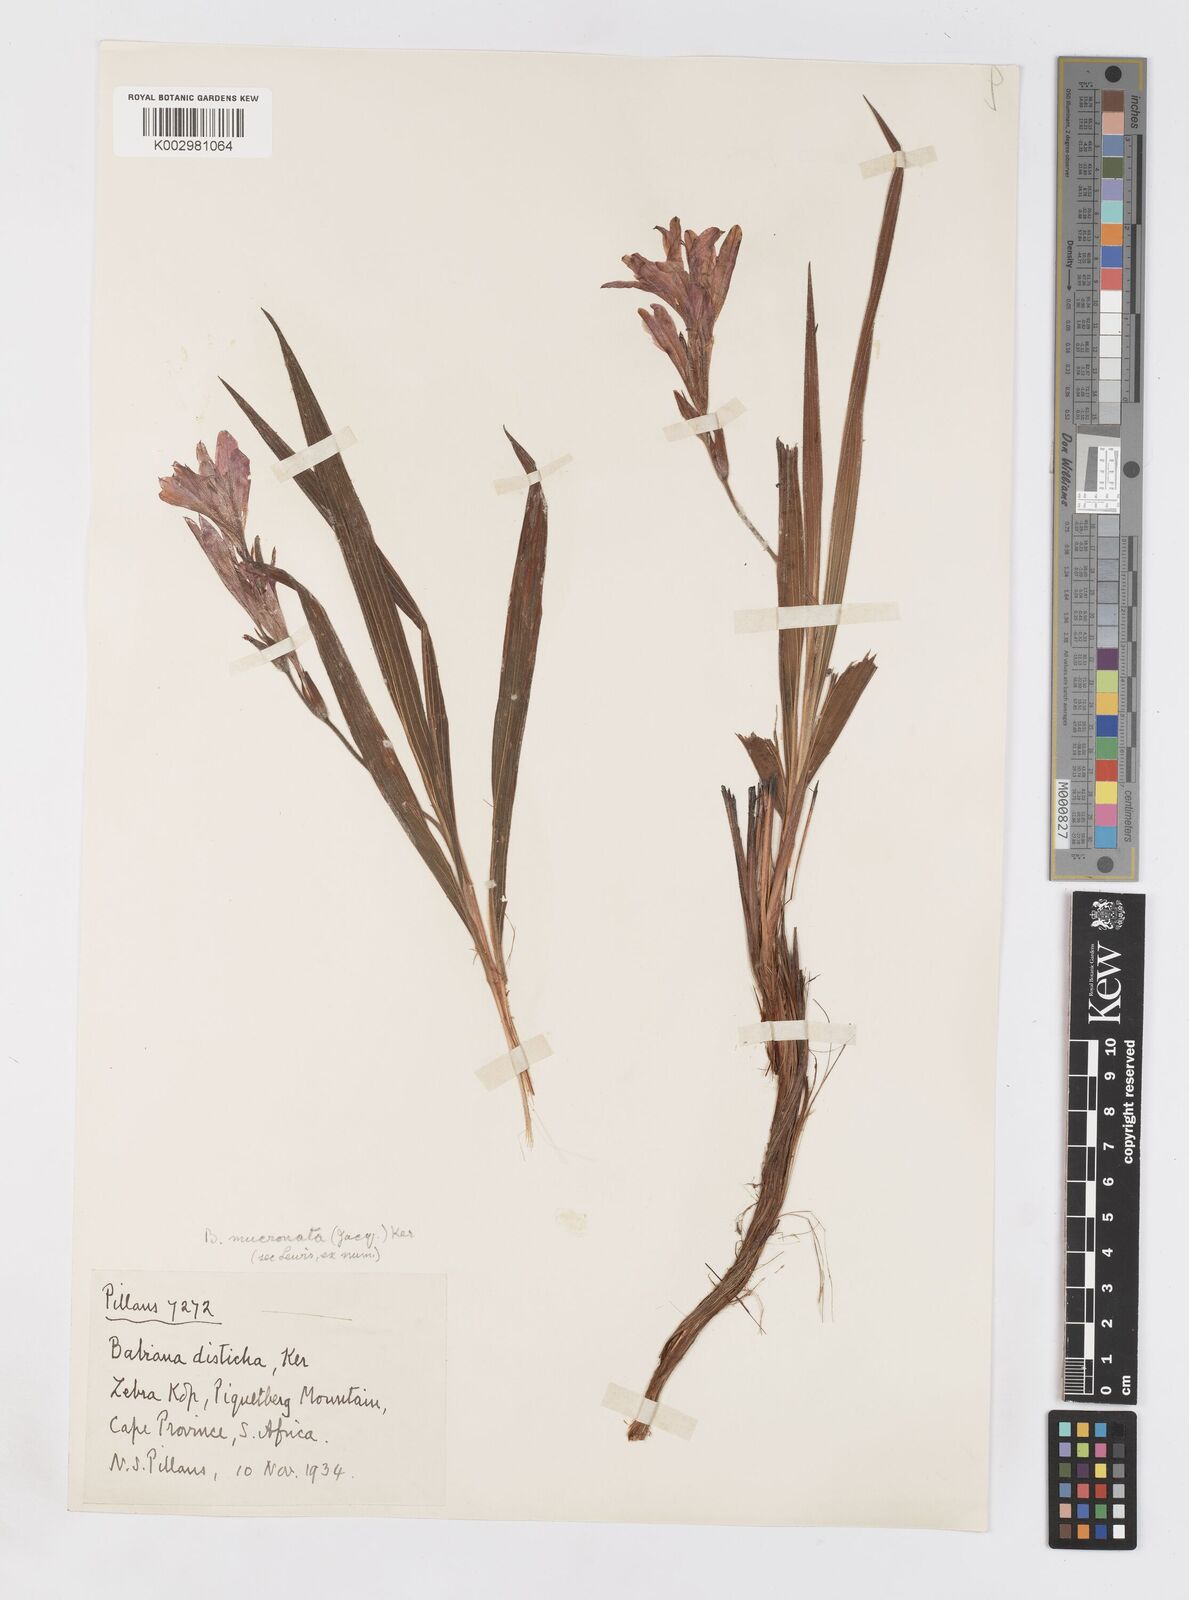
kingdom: Plantae
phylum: Tracheophyta
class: Liliopsida
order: Asparagales
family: Iridaceae
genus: Babiana
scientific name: Babiana mucronata
